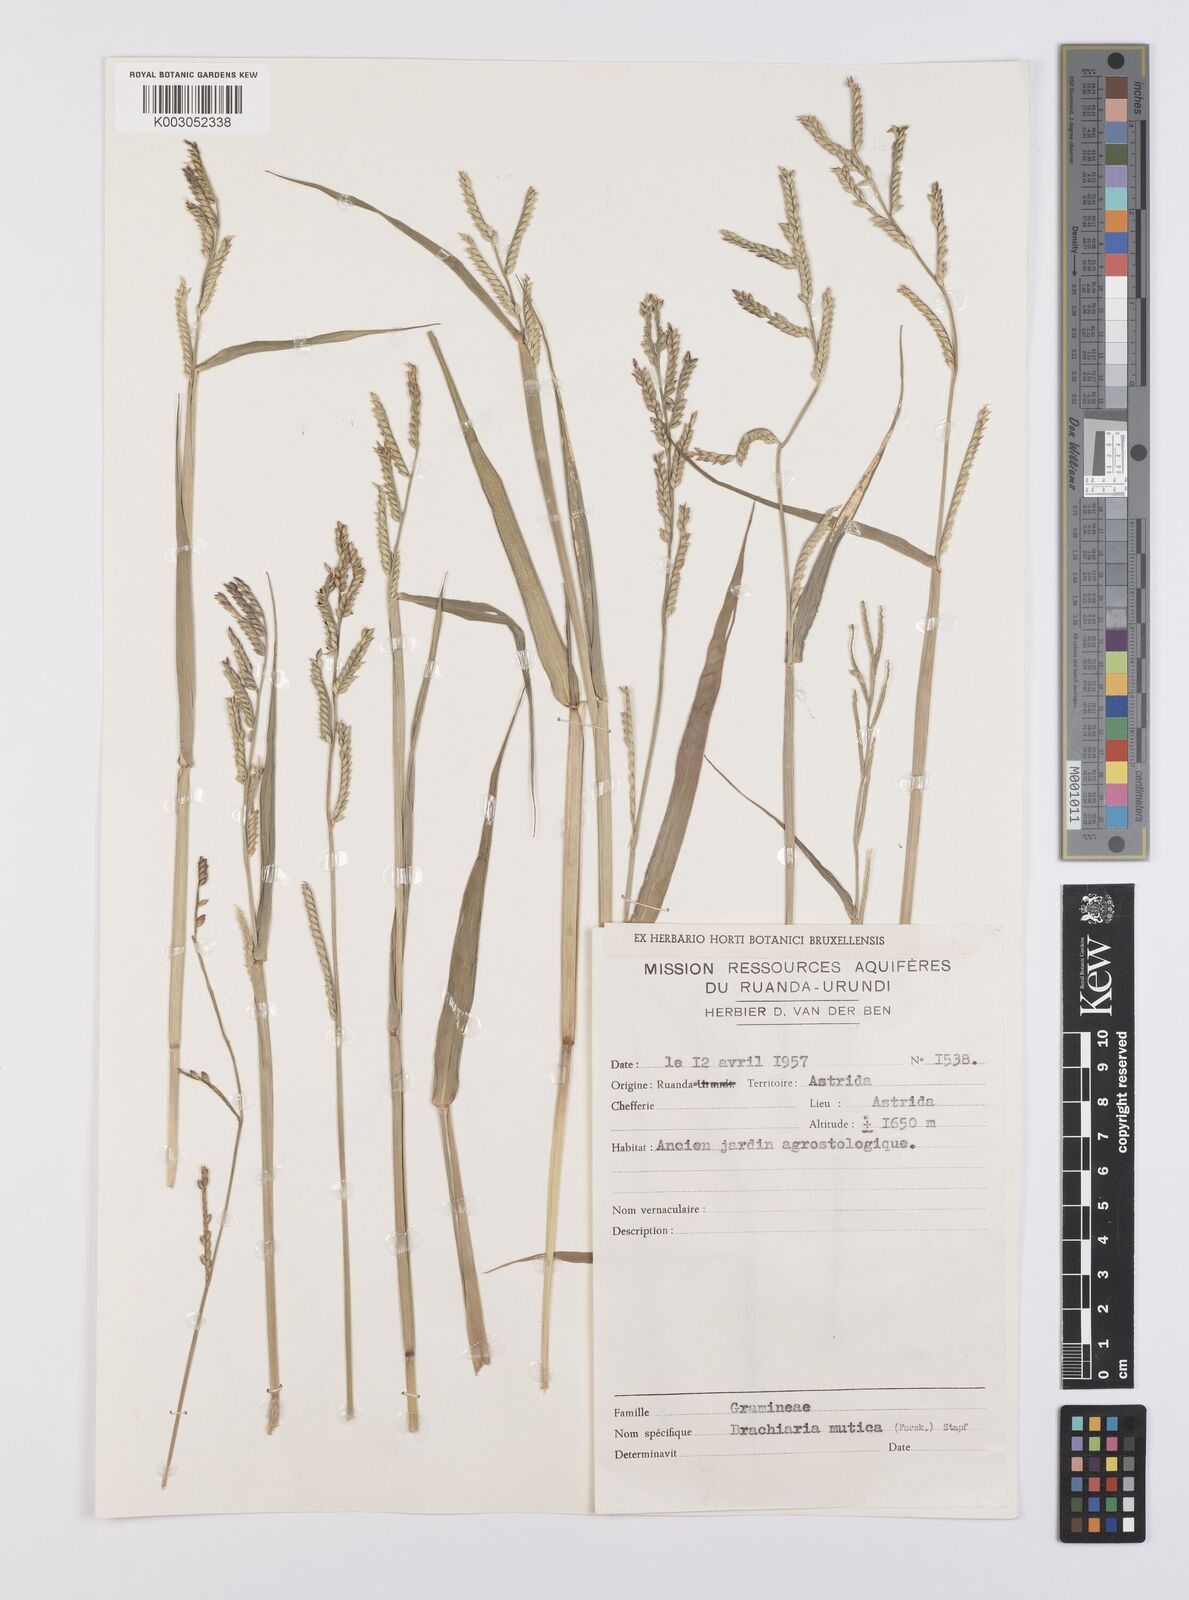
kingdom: Plantae
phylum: Tracheophyta
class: Liliopsida
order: Poales
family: Poaceae
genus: Urochloa
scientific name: Urochloa arrecta
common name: African signalgrass
